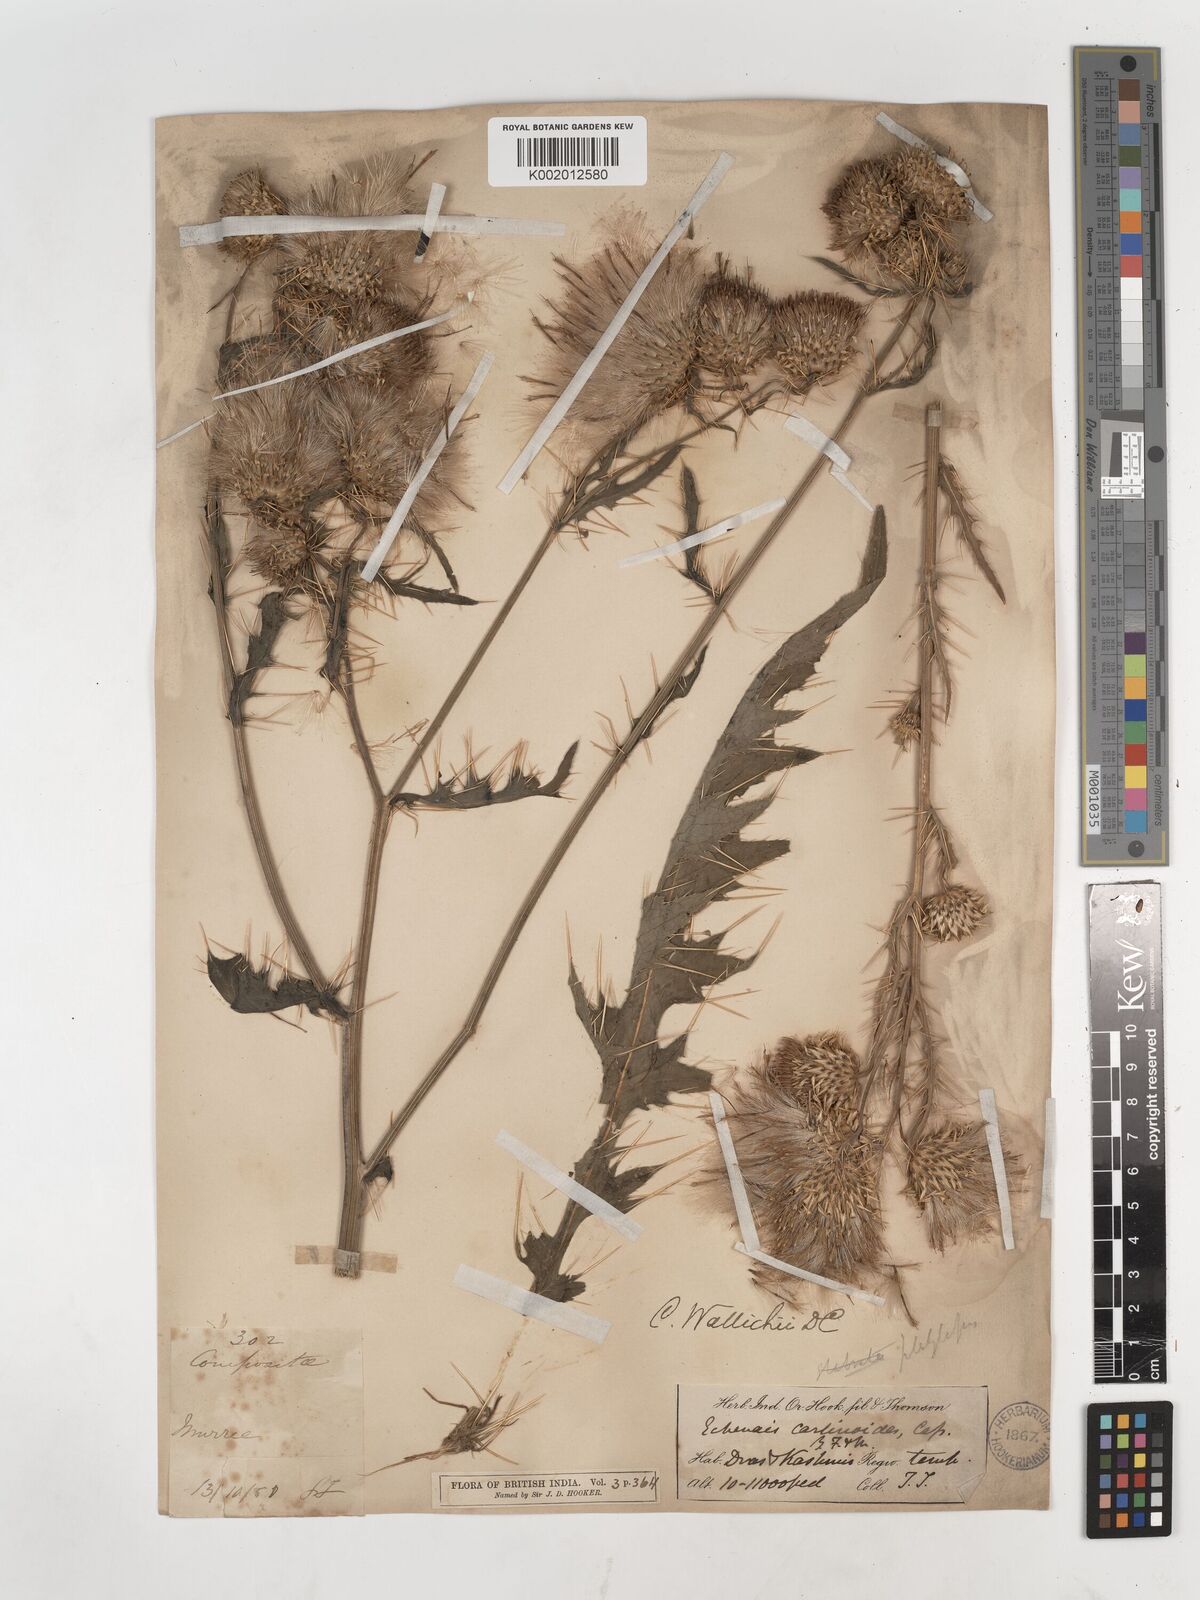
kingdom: Plantae
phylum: Tracheophyta
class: Magnoliopsida
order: Asterales
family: Asteraceae
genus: Cirsium
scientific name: Cirsium wallichii
